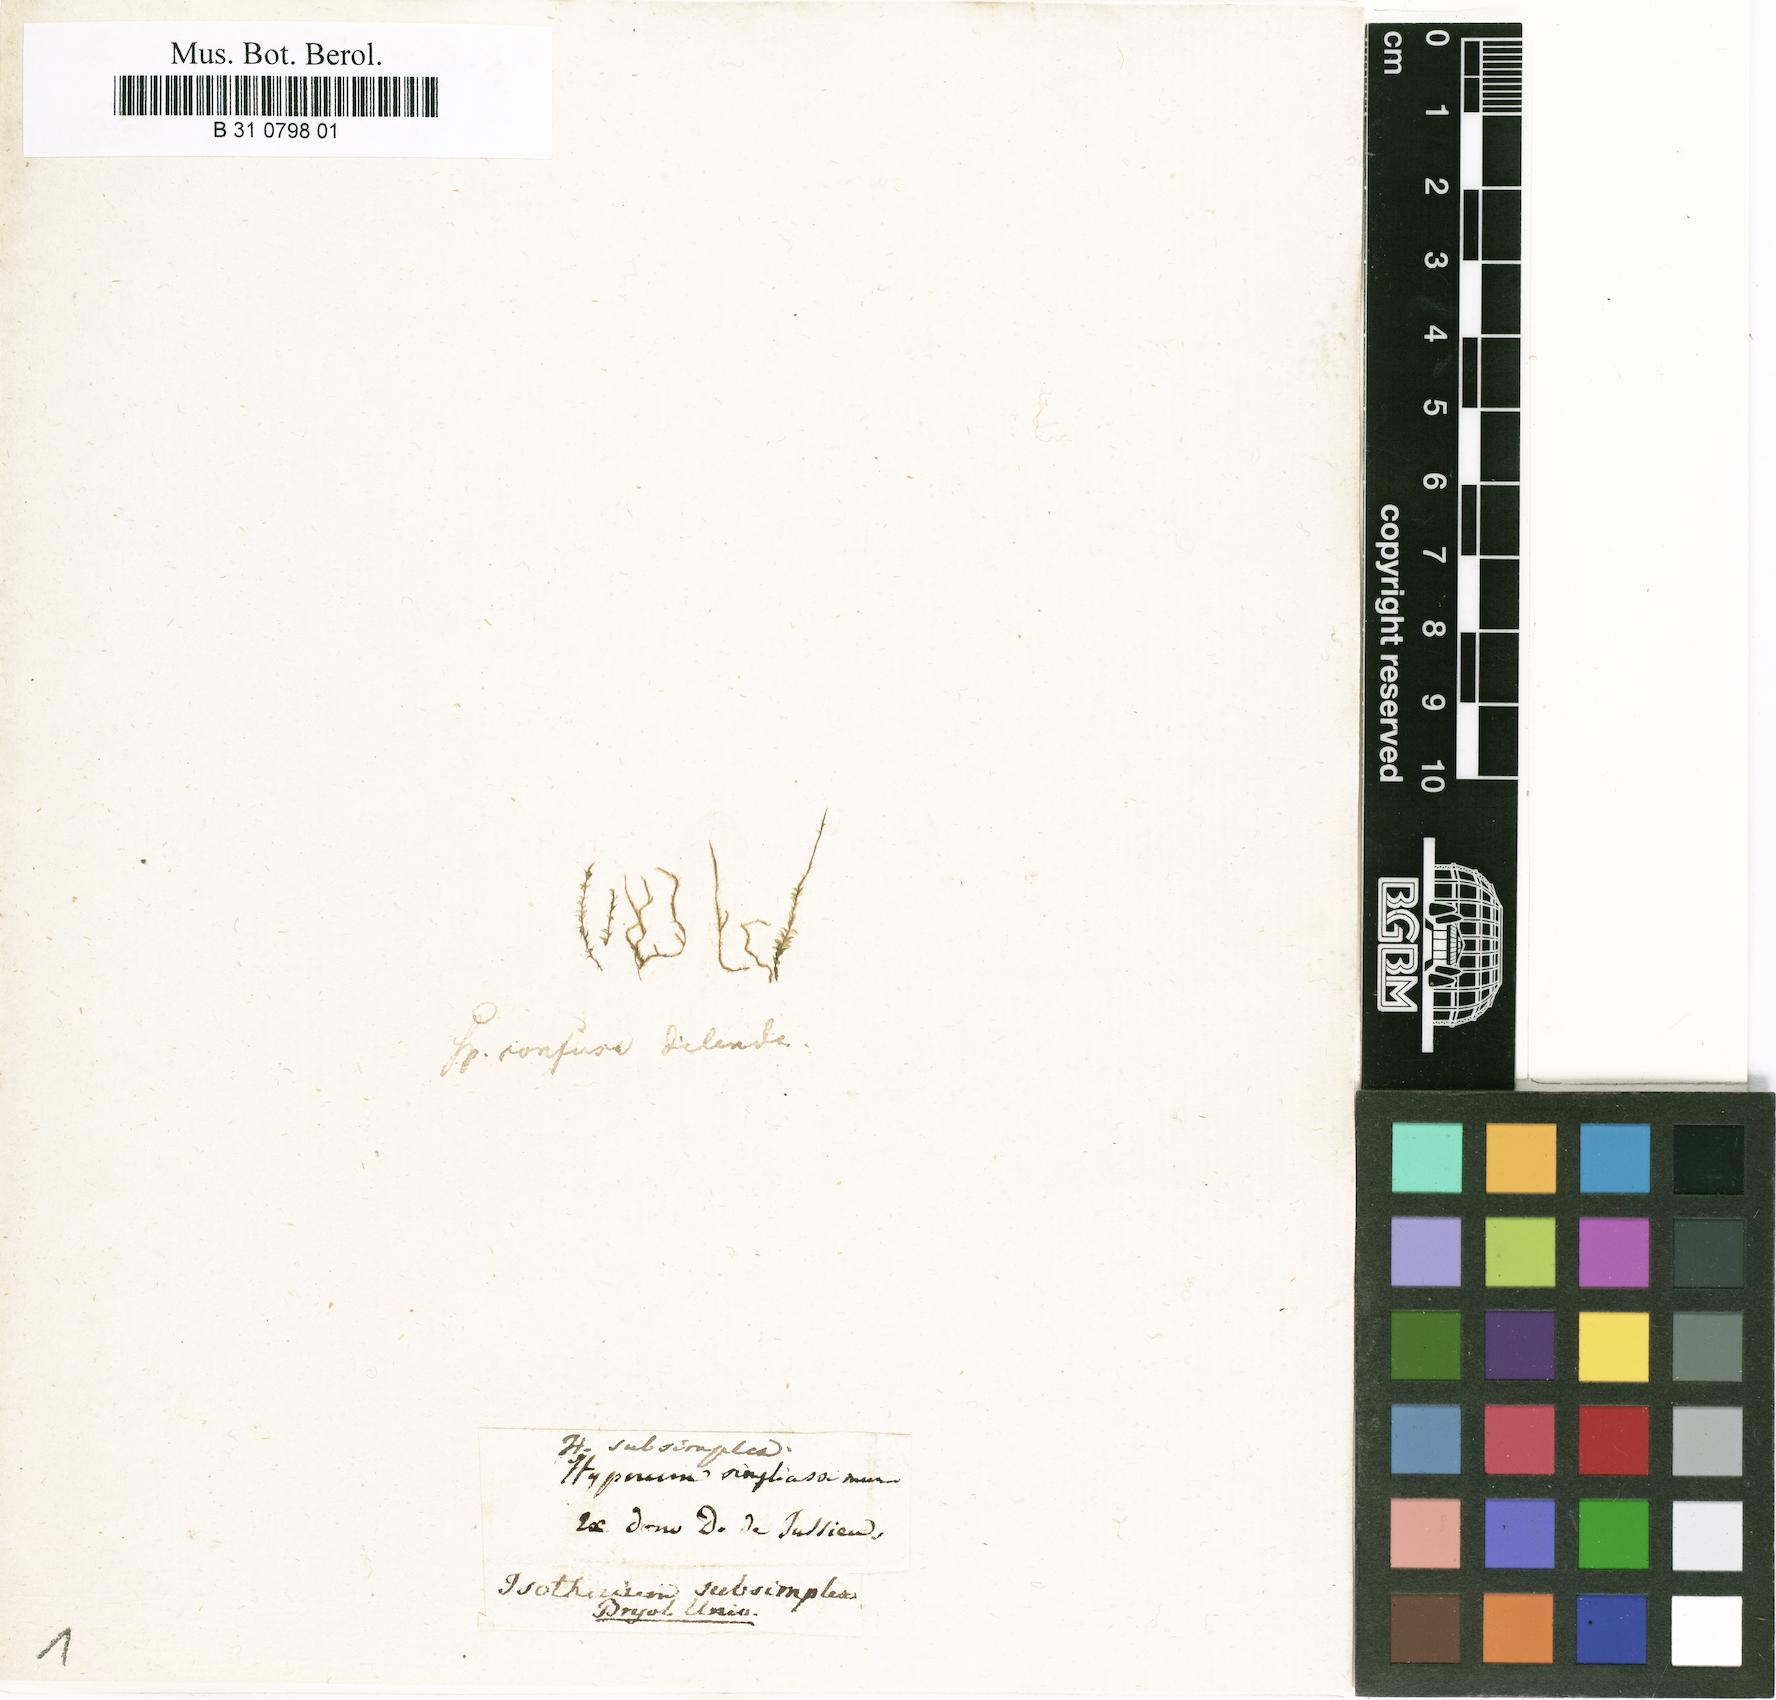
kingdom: Plantae
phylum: Bryophyta
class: Bryopsida
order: Hypnales
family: Sematophyllaceae
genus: Microcalpe
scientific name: Microcalpe subsimplex
